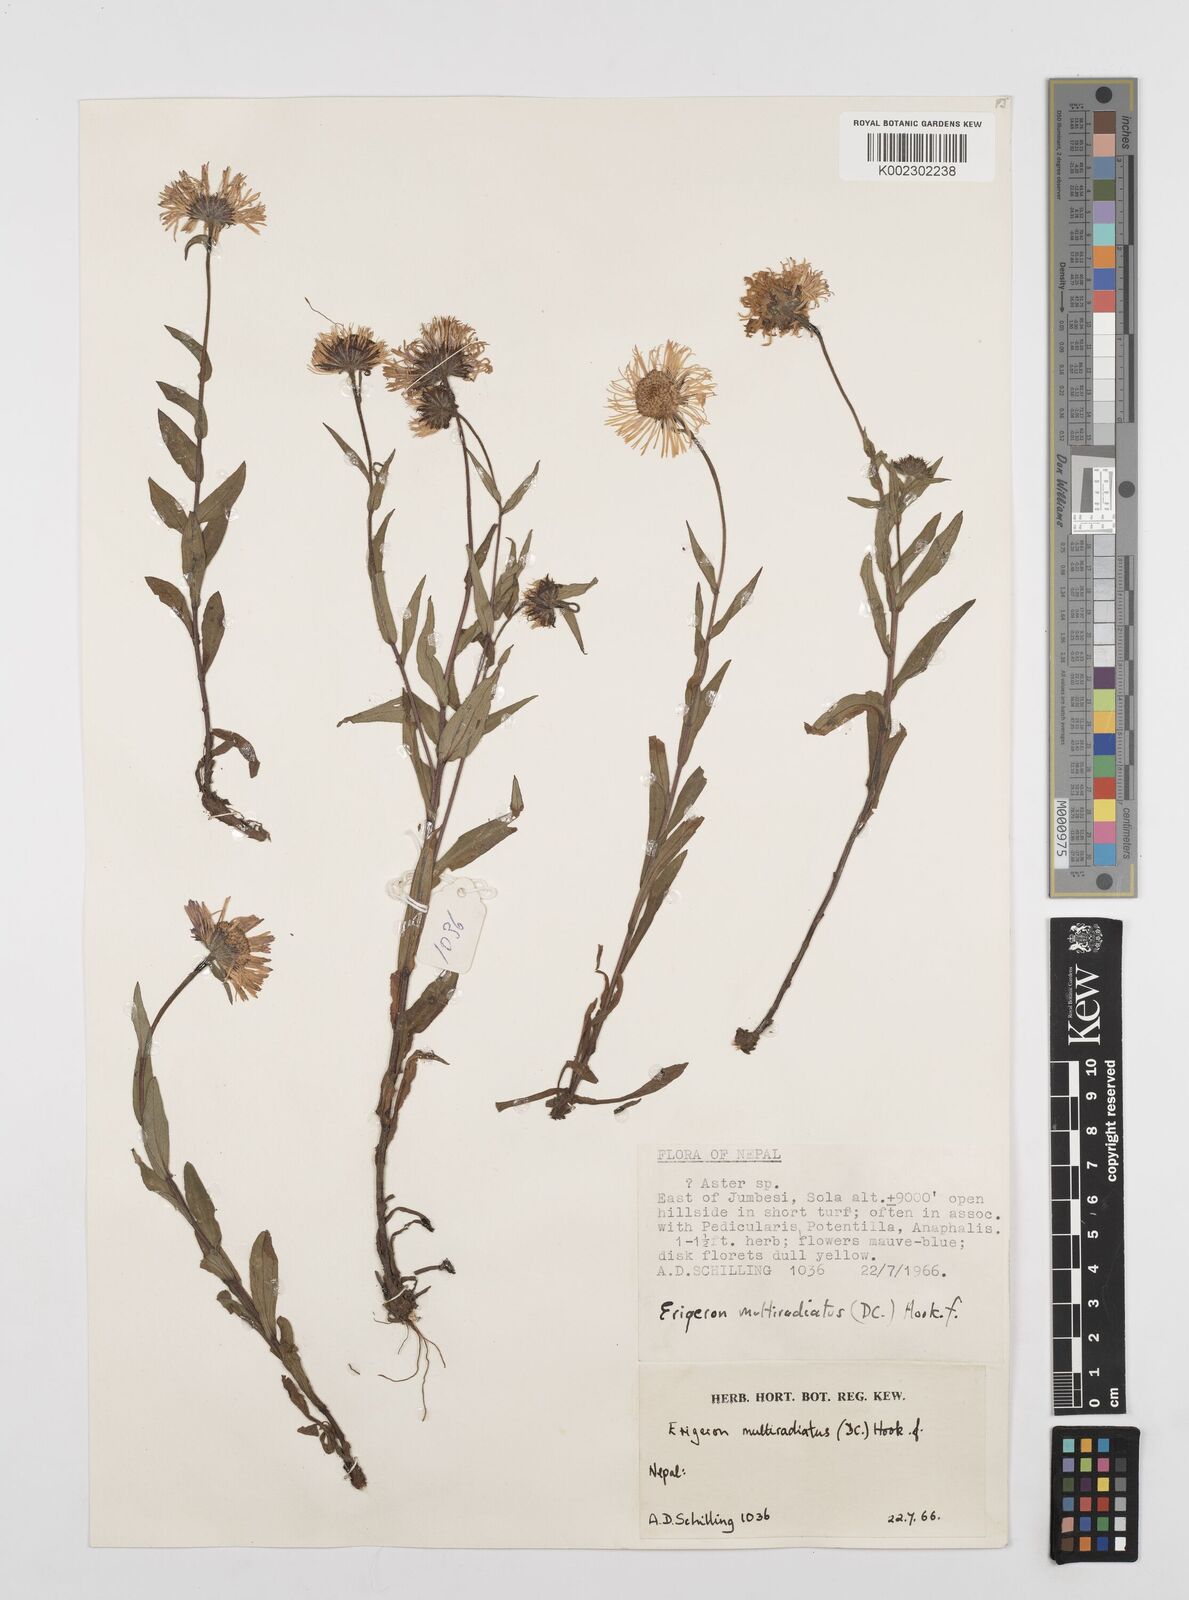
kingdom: Plantae
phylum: Tracheophyta
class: Magnoliopsida
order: Asterales
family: Asteraceae
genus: Erigeron
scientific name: Erigeron multiradiatus
